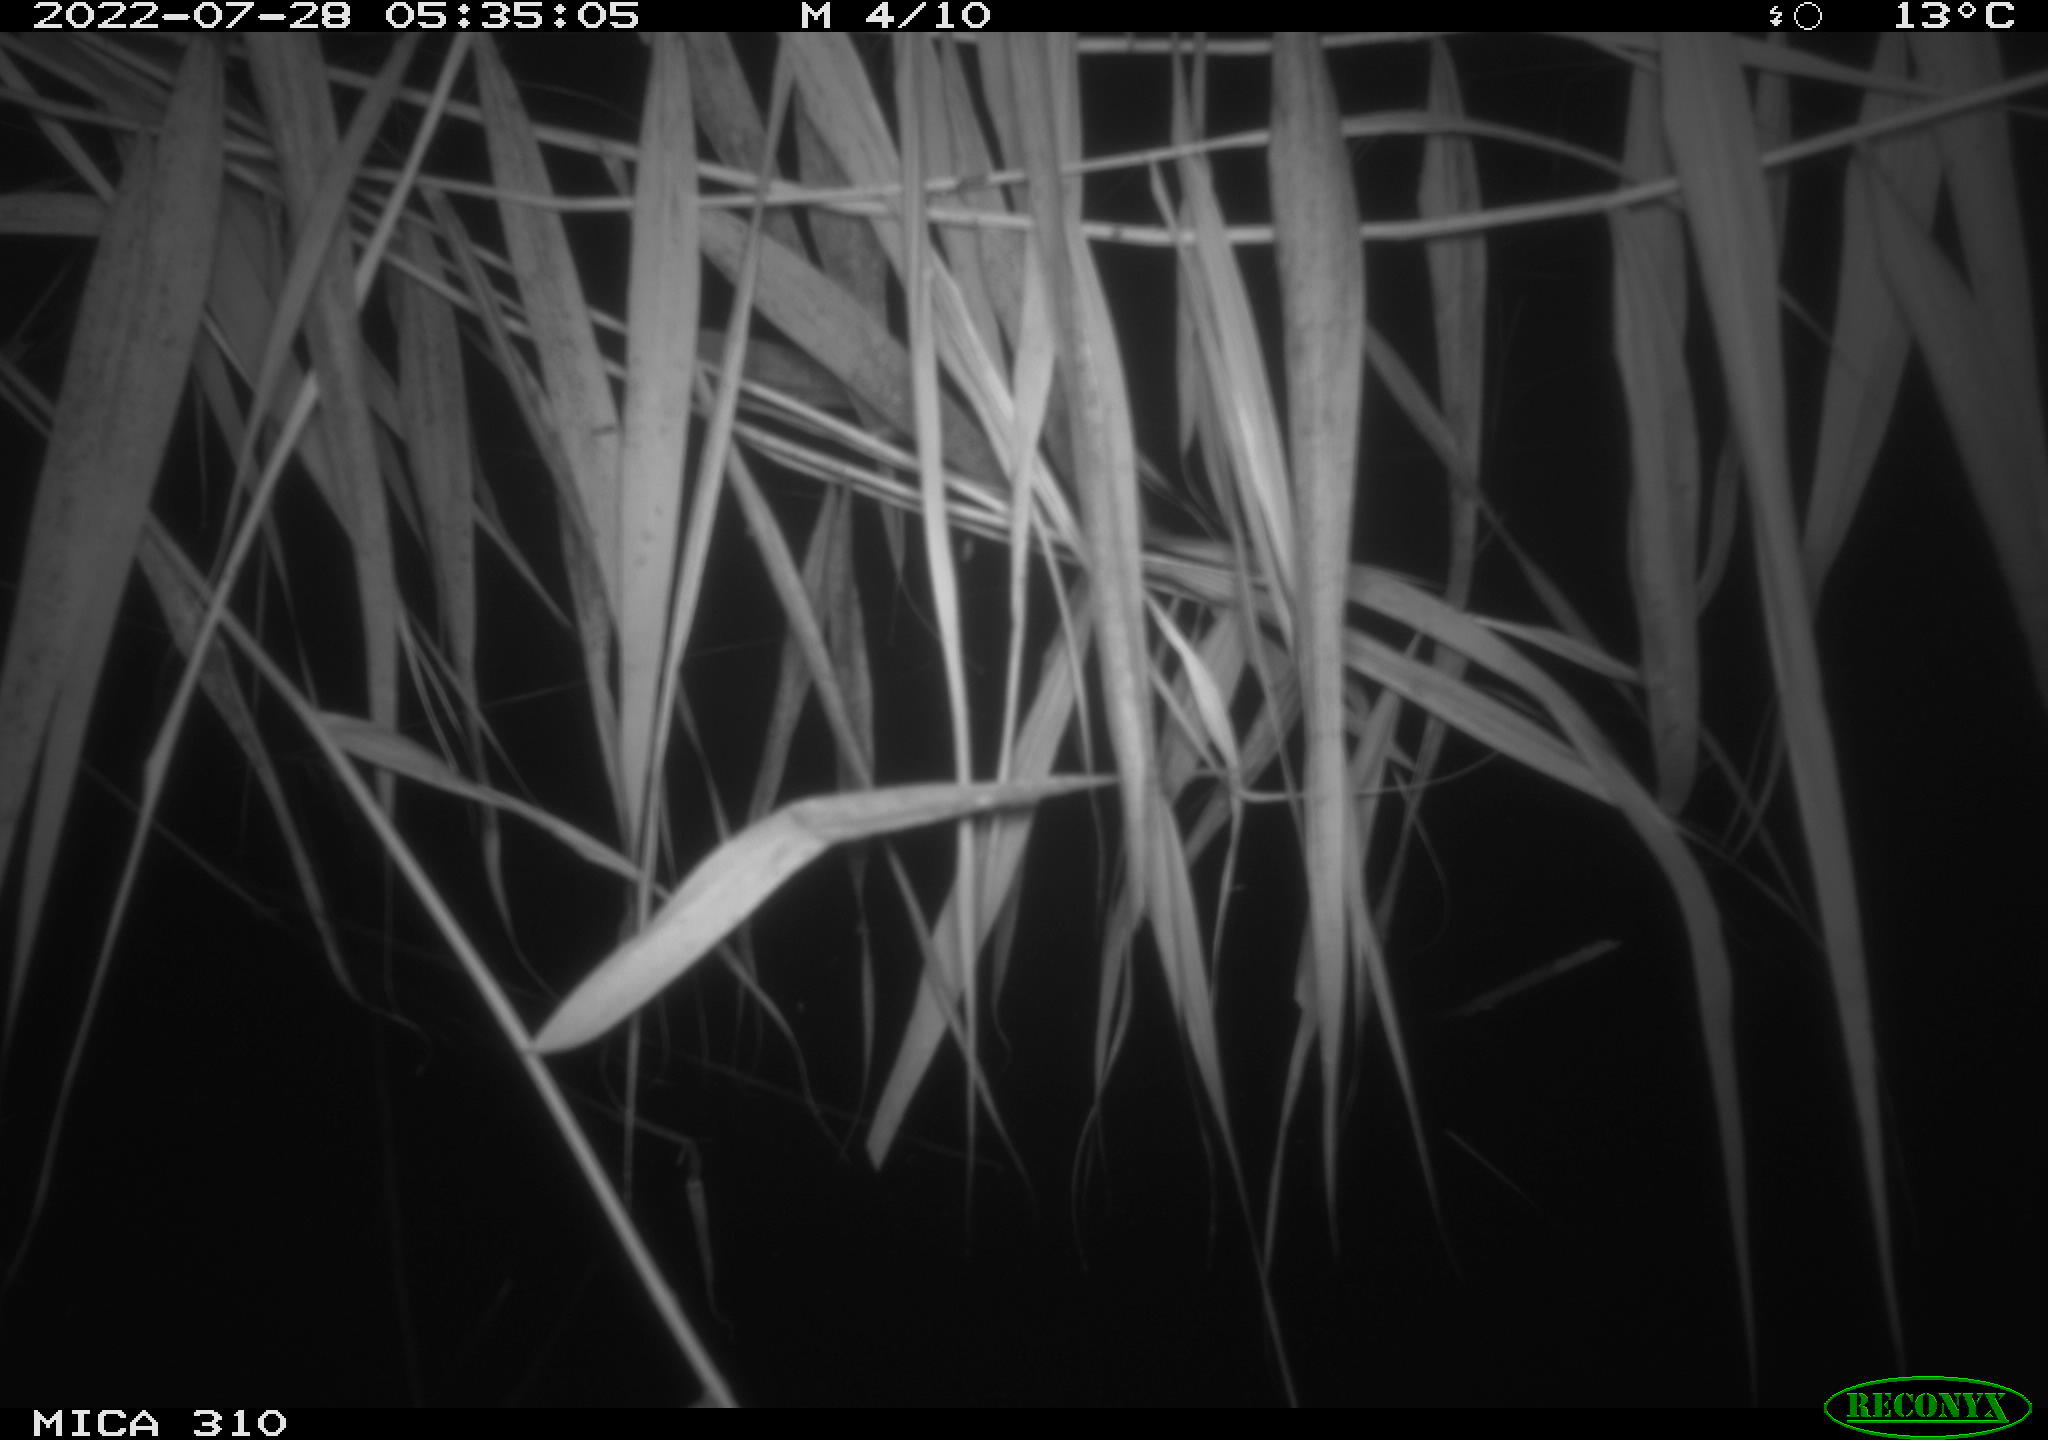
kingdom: Animalia
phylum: Chordata
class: Aves
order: Anseriformes
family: Anatidae
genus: Anas
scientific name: Anas platyrhynchos
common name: Mallard
